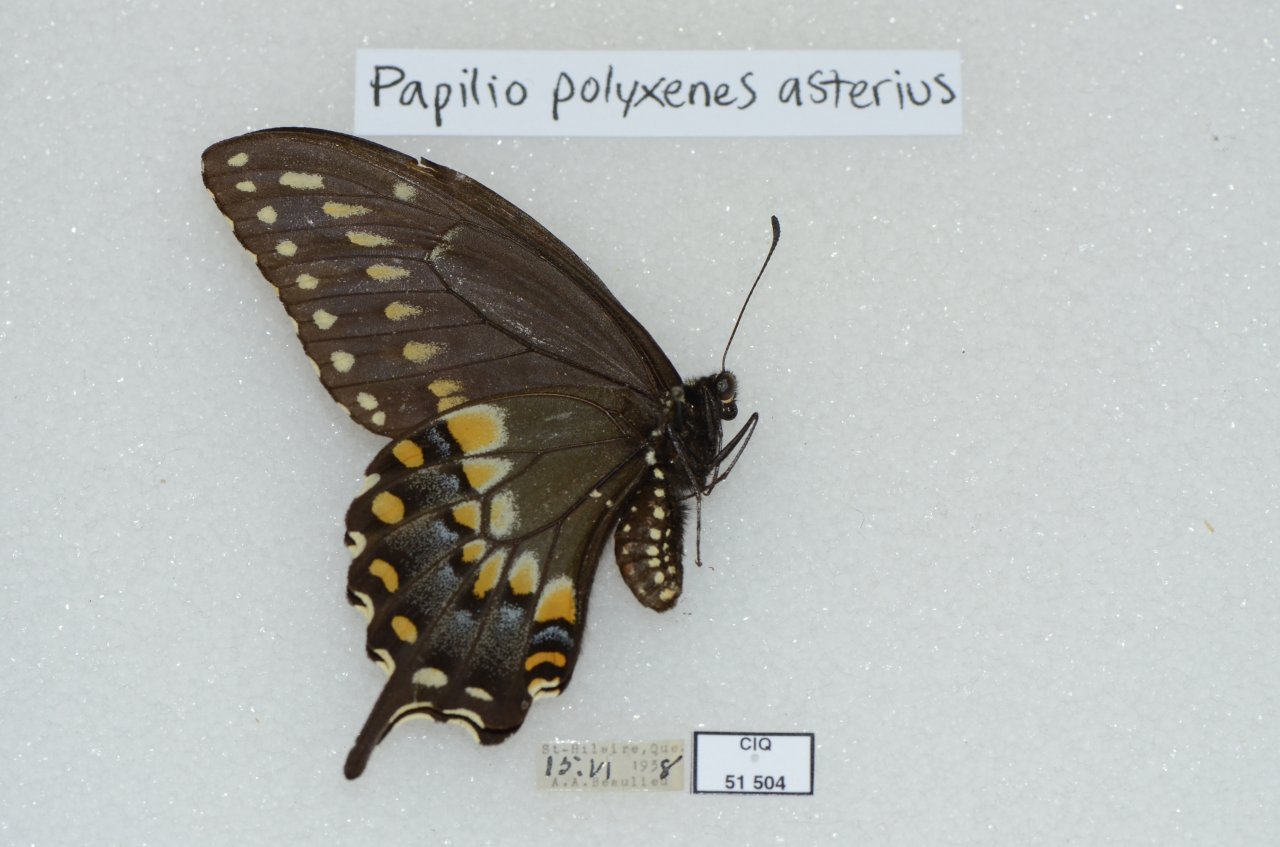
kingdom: Animalia
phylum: Arthropoda
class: Insecta
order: Lepidoptera
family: Papilionidae
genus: Papilio
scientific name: Papilio polyxenes
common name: Black Swallowtail
